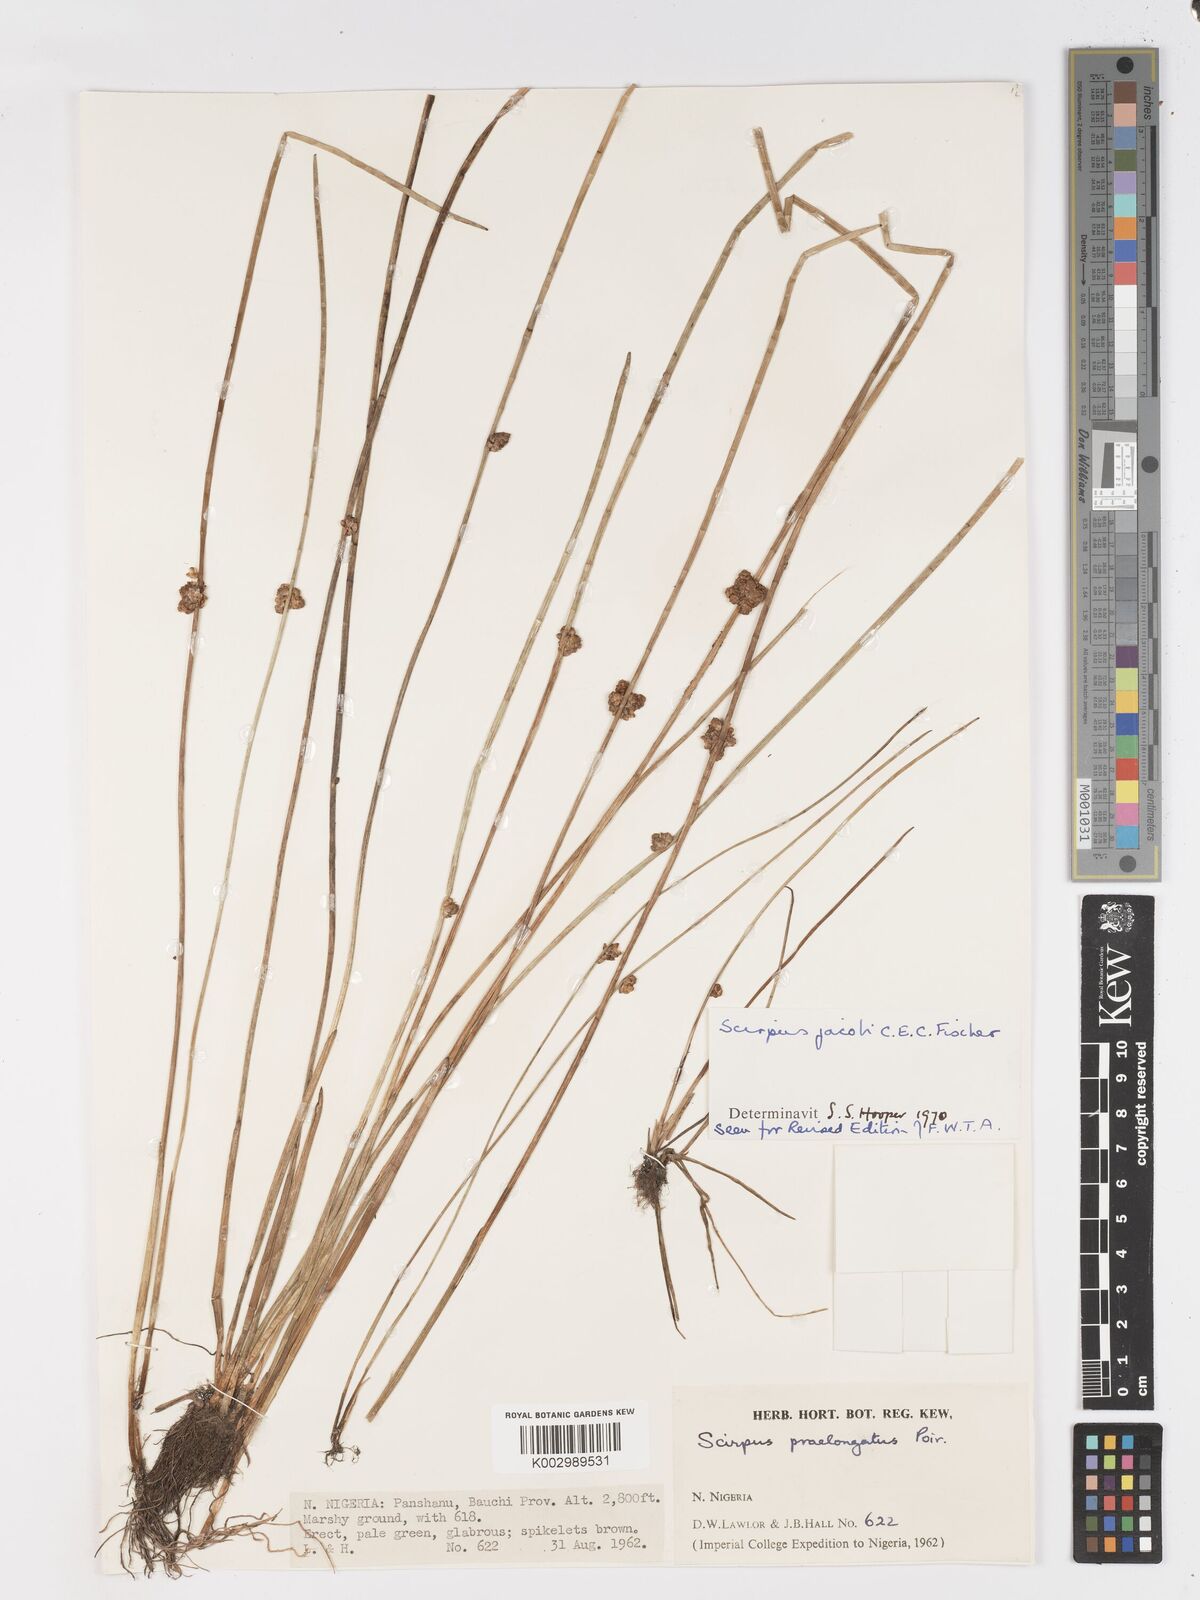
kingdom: Plantae
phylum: Tracheophyta
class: Liliopsida
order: Poales
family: Cyperaceae
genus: Schoenoplectiella
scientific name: Schoenoplectiella praelongata
